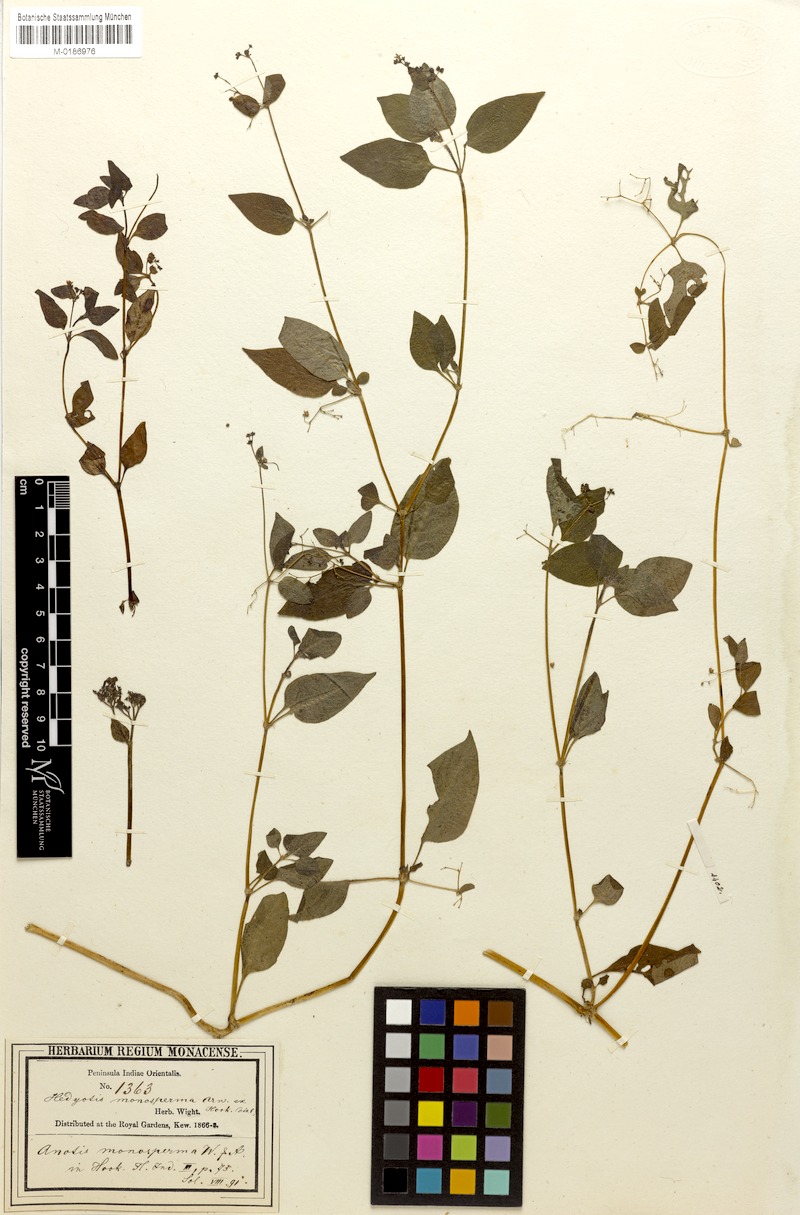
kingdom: Plantae
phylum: Tracheophyta
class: Magnoliopsida
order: Gentianales
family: Rubiaceae
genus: Neanotis
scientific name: Neanotis monosperma
